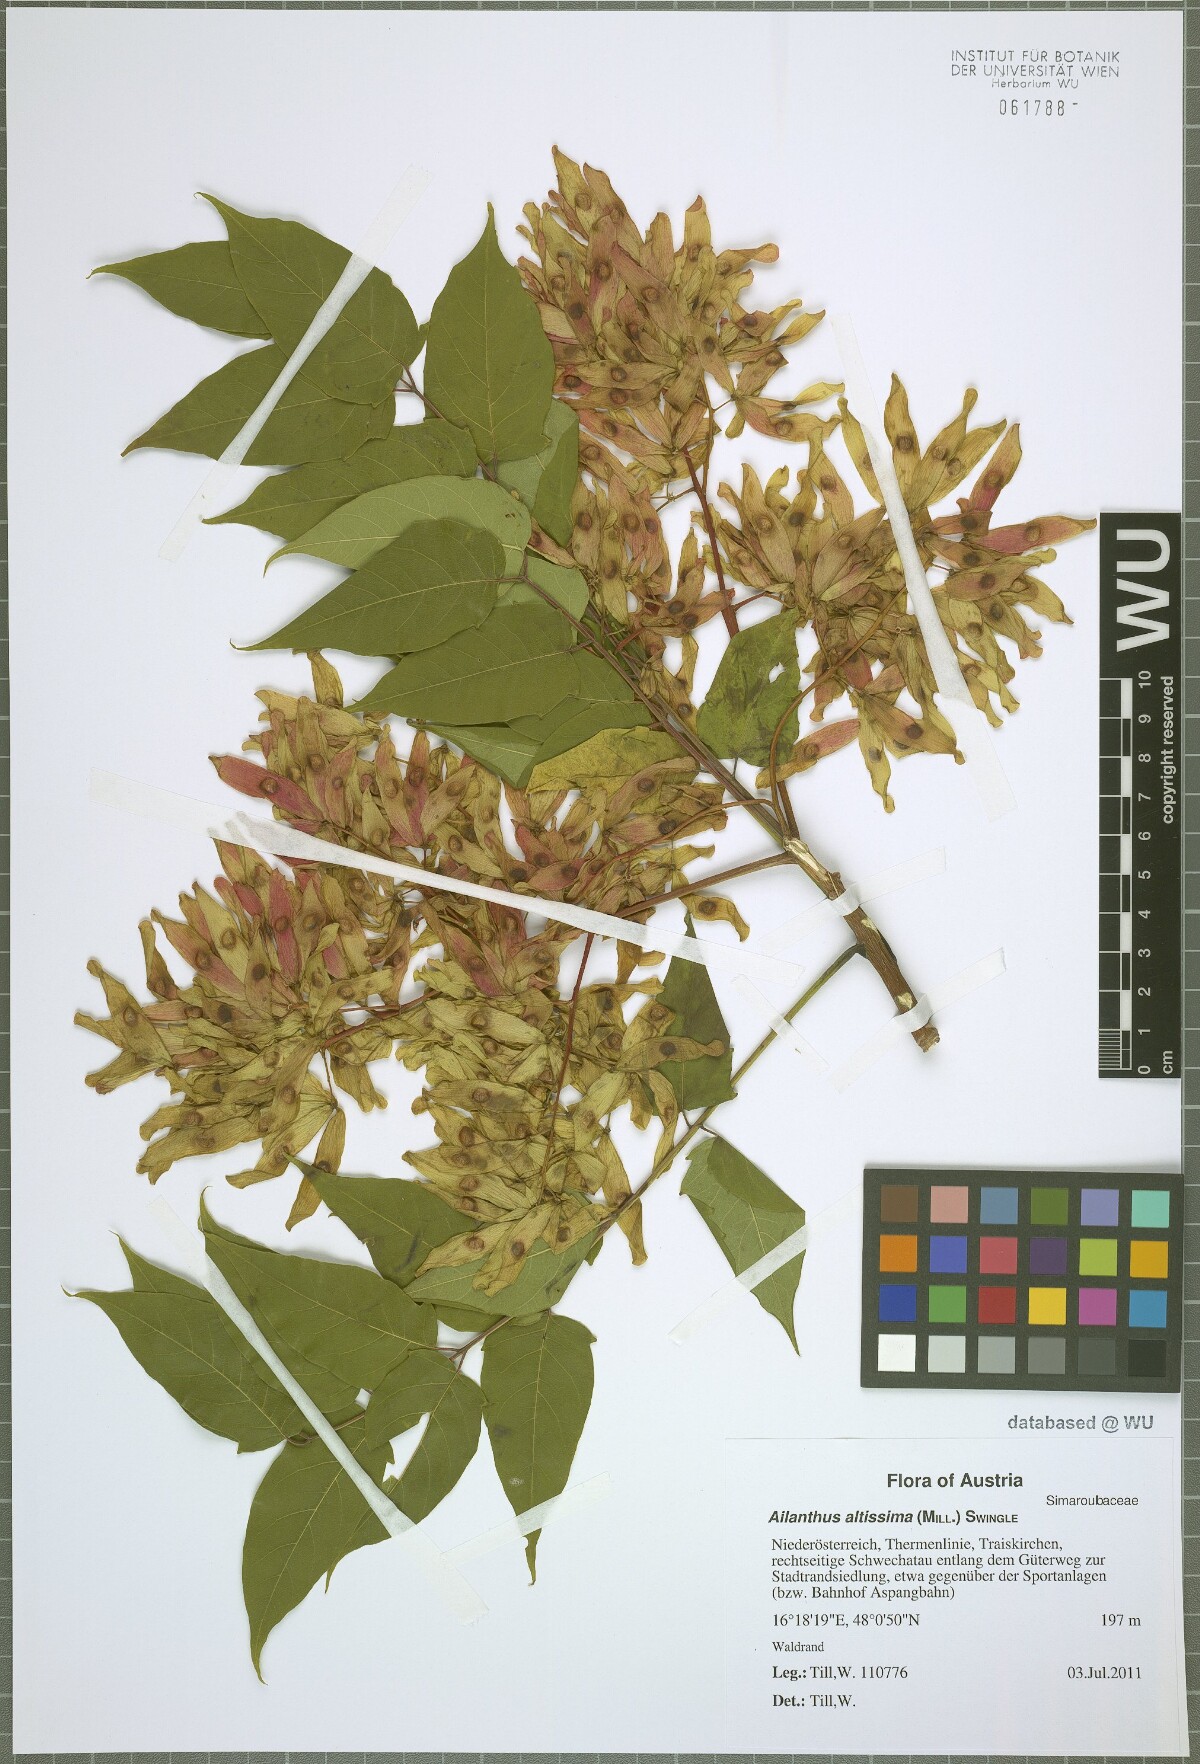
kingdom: Plantae
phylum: Tracheophyta
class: Magnoliopsida
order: Sapindales
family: Simaroubaceae
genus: Ailanthus
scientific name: Ailanthus altissima
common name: Tree-of-heaven
